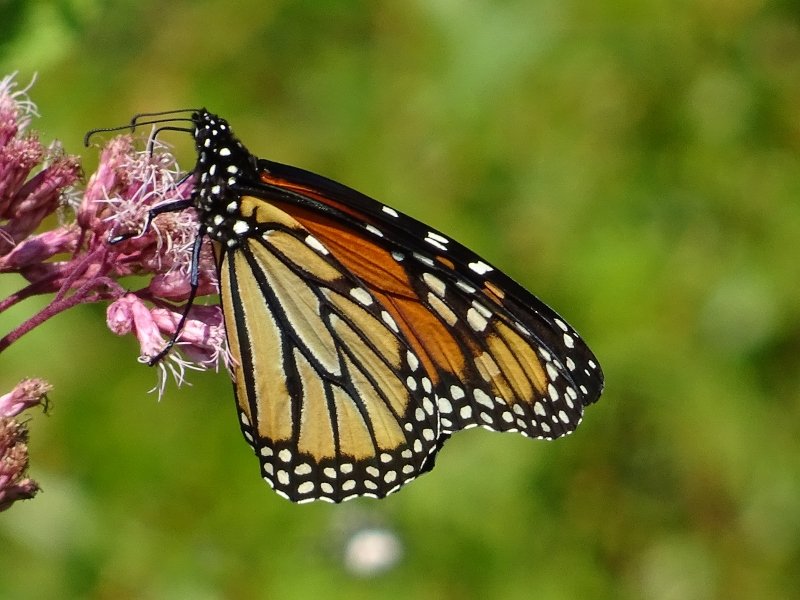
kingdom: Animalia
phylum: Arthropoda
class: Insecta
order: Lepidoptera
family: Nymphalidae
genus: Danaus
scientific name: Danaus plexippus
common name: Monarch
